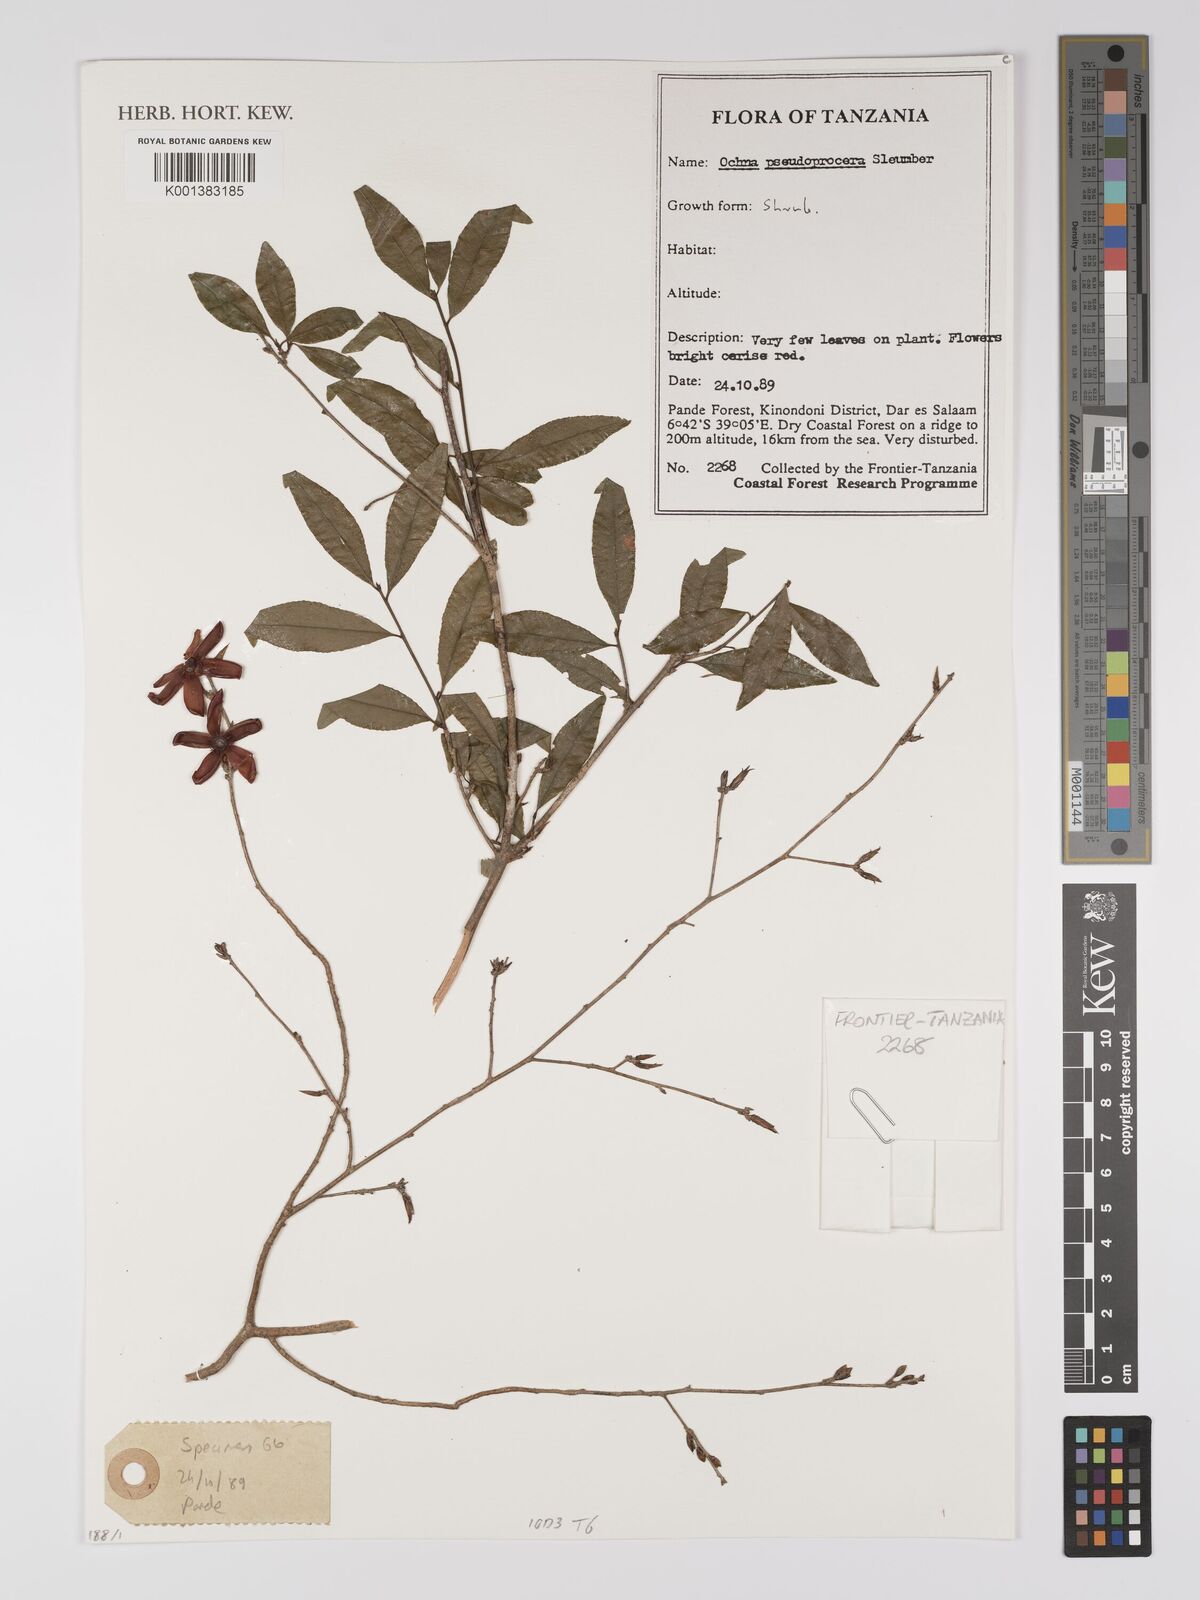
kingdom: Plantae
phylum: Tracheophyta
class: Magnoliopsida
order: Malpighiales
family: Ochnaceae
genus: Ochna
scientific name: Ochna pseudoprocera
